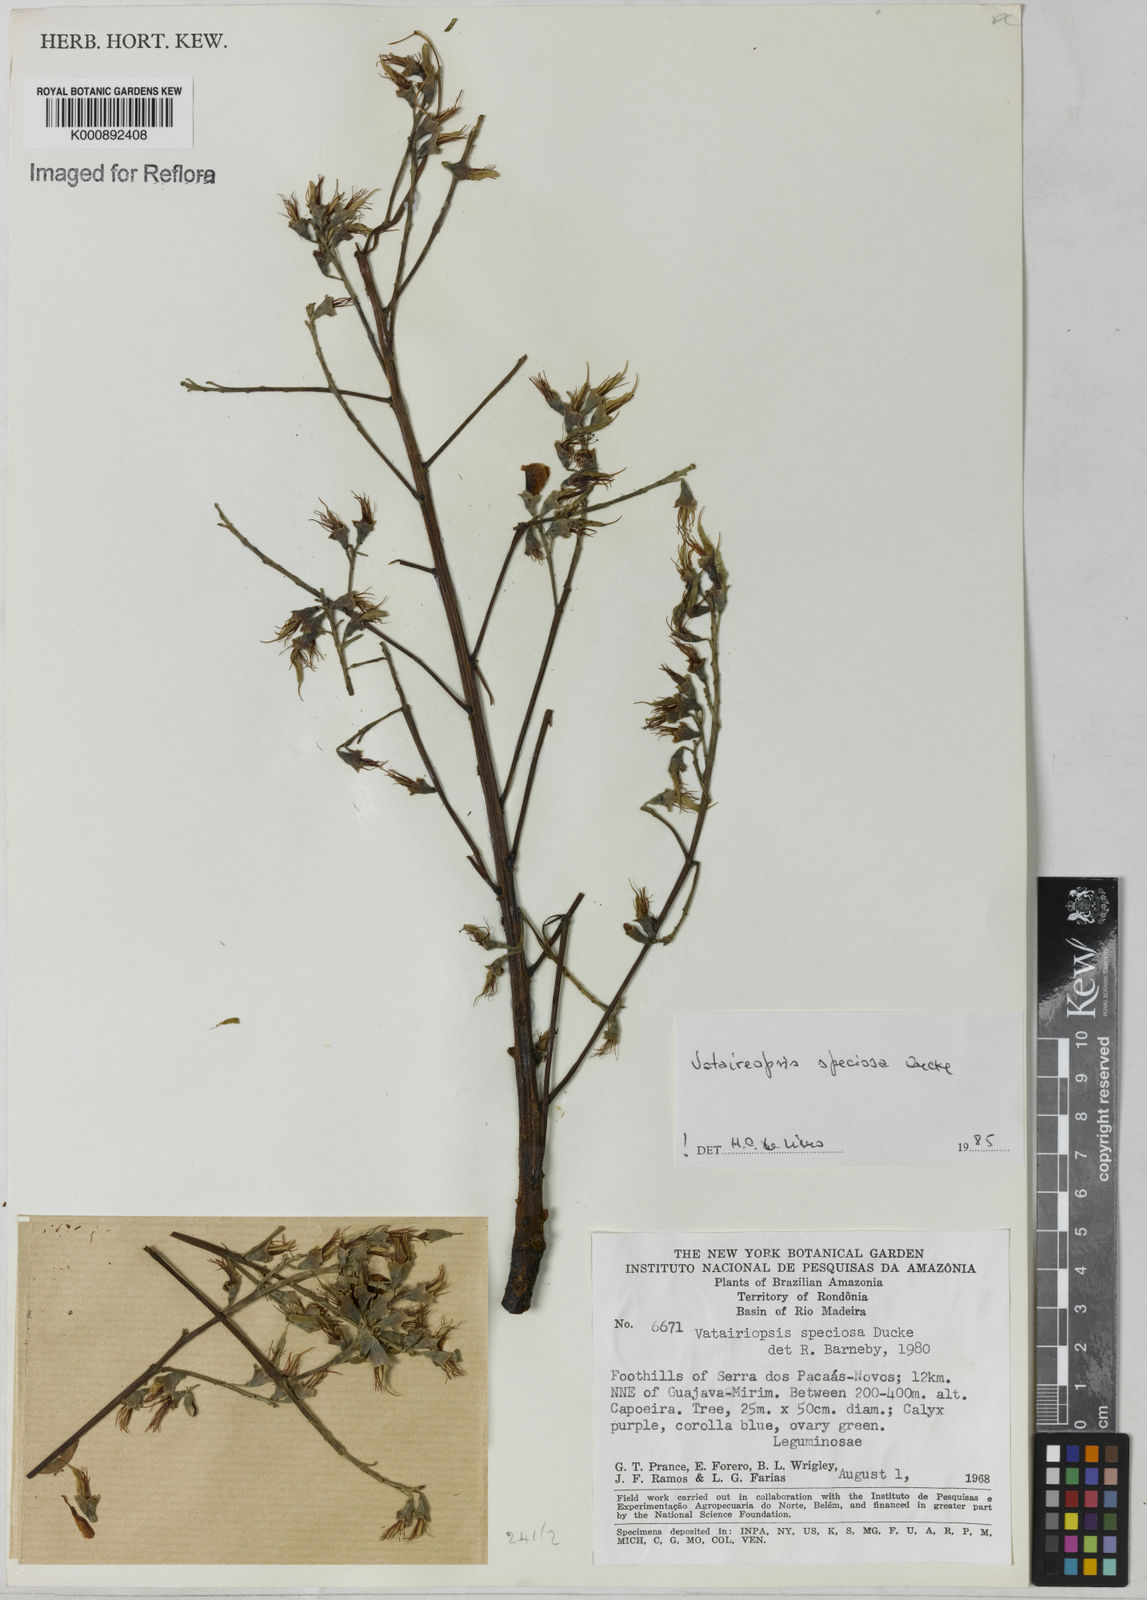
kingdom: Plantae
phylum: Tracheophyta
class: Magnoliopsida
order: Fabales
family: Fabaceae
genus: Vataireopsis
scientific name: Vataireopsis speciosa
